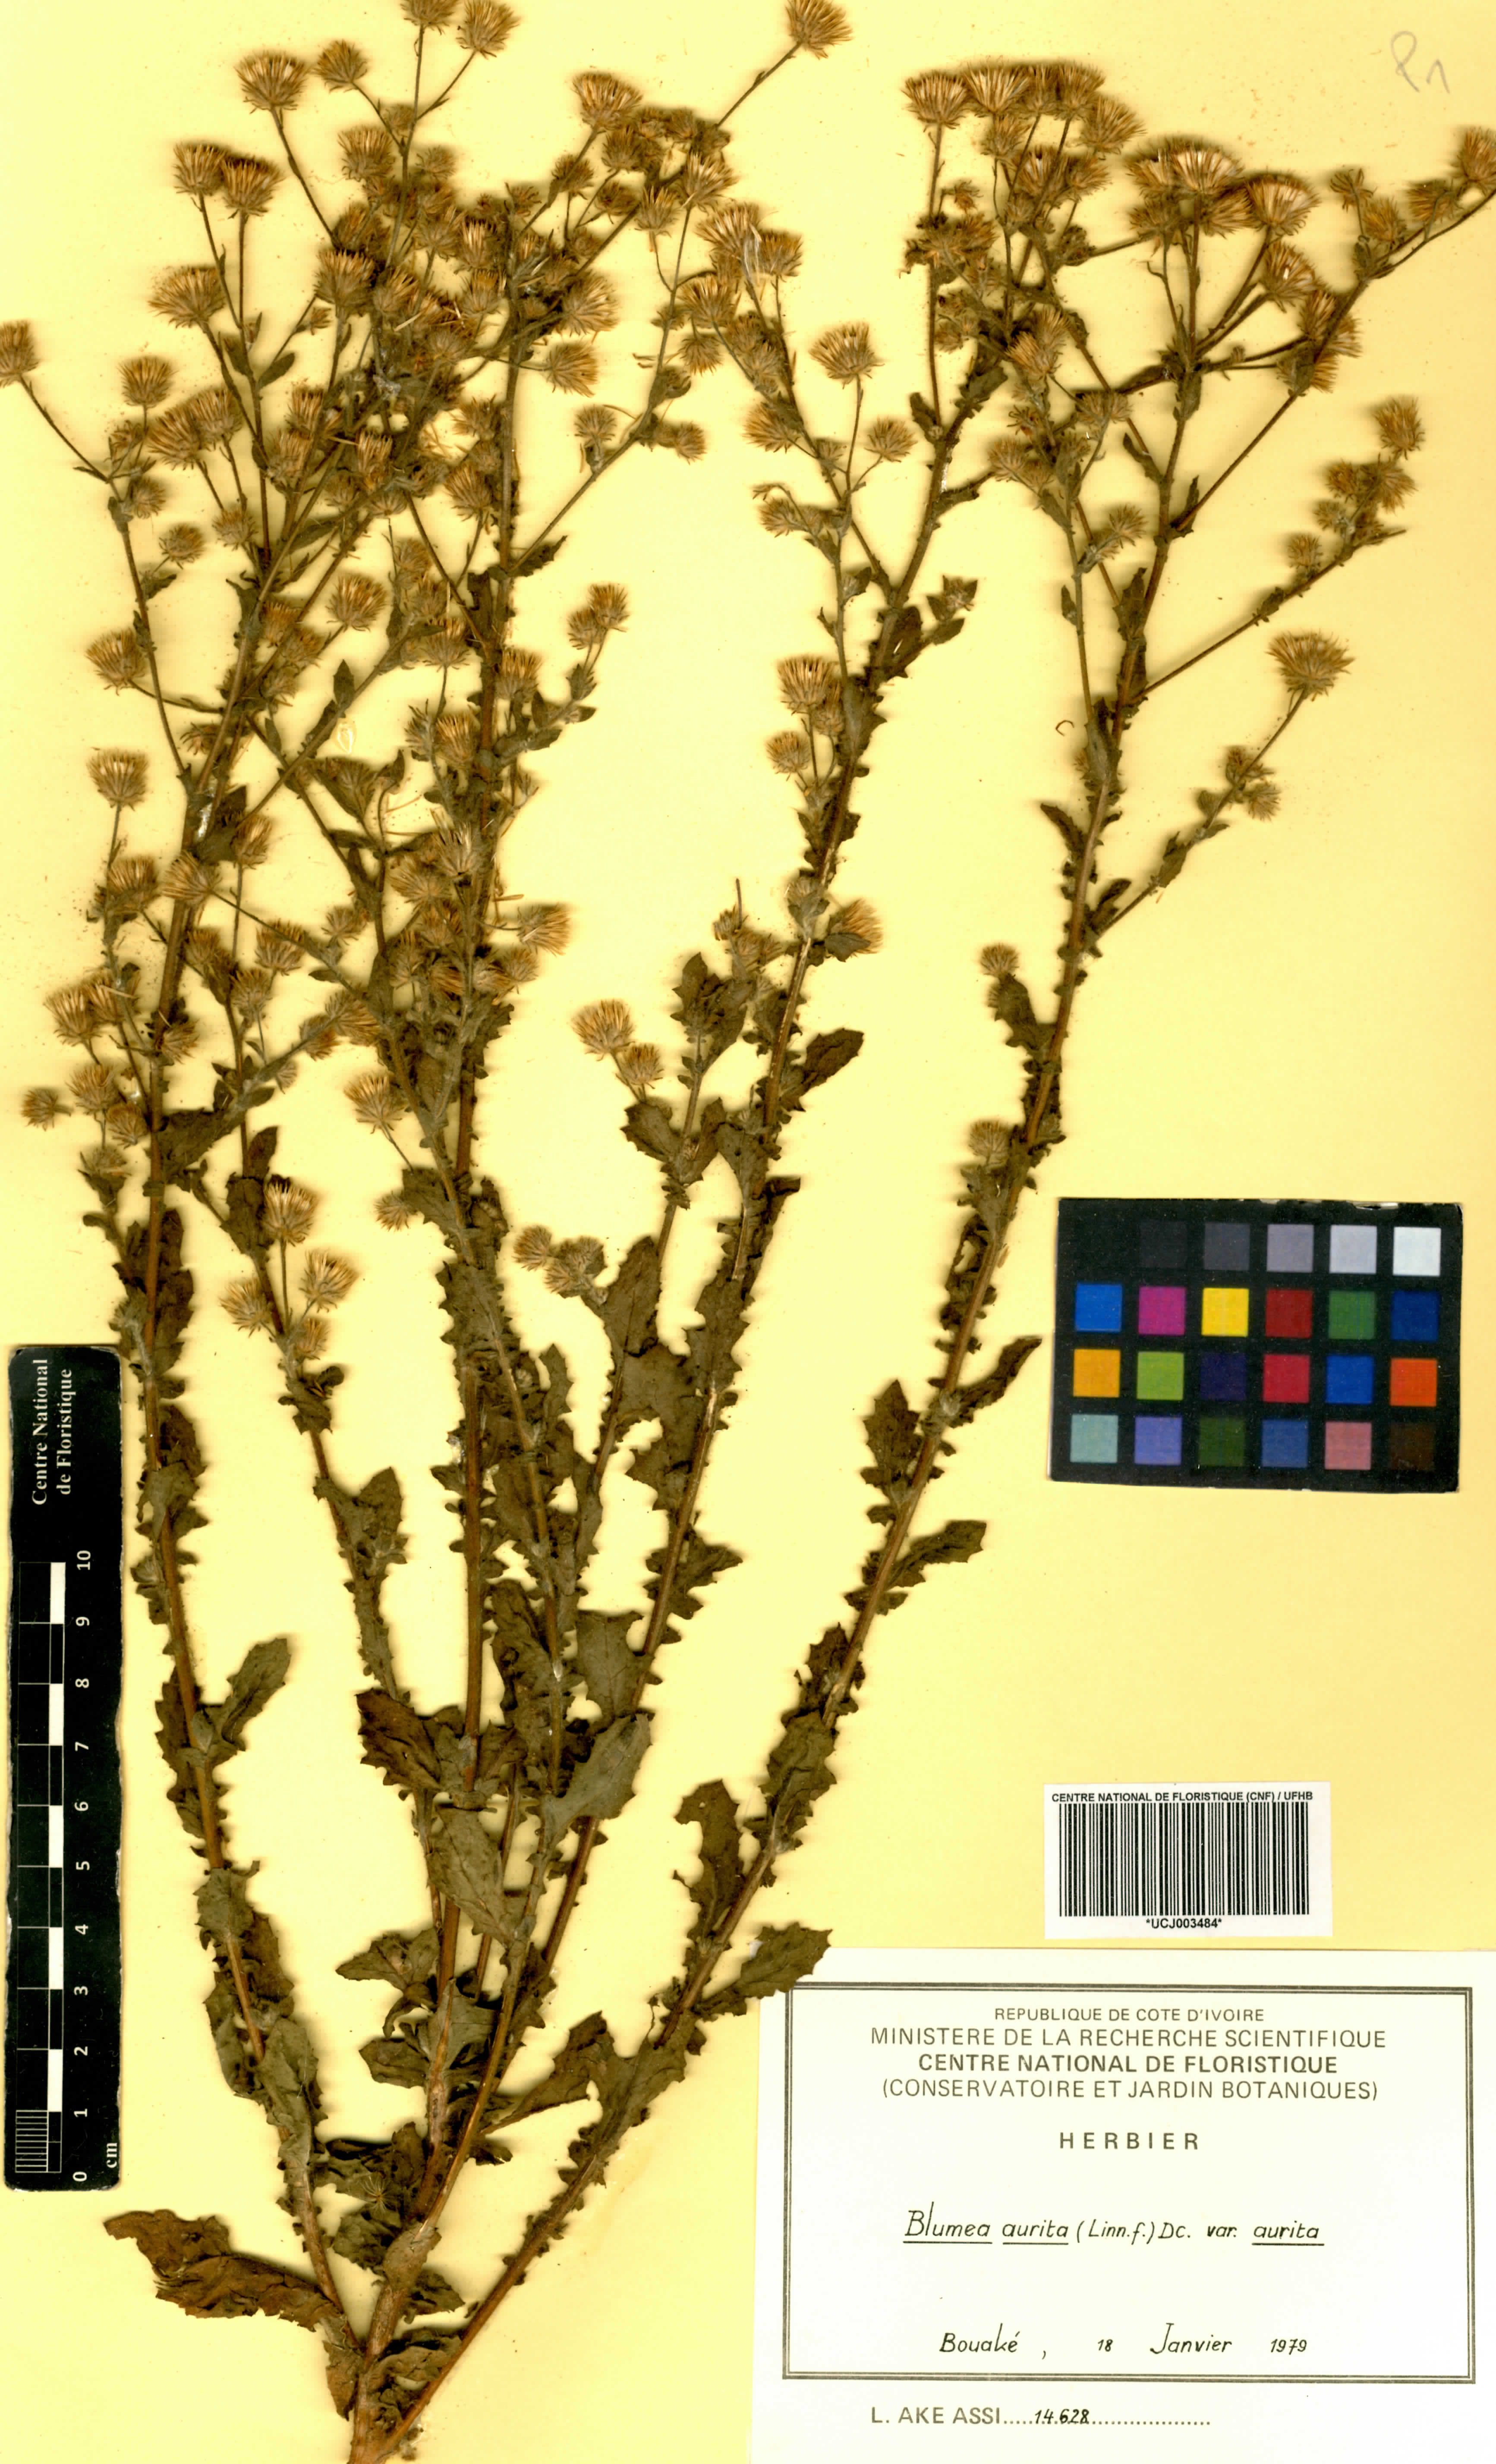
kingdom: Plantae
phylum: Tracheophyta
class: Magnoliopsida
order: Asterales
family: Asteraceae
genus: Pseudoconyza
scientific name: Pseudoconyza viscosa
